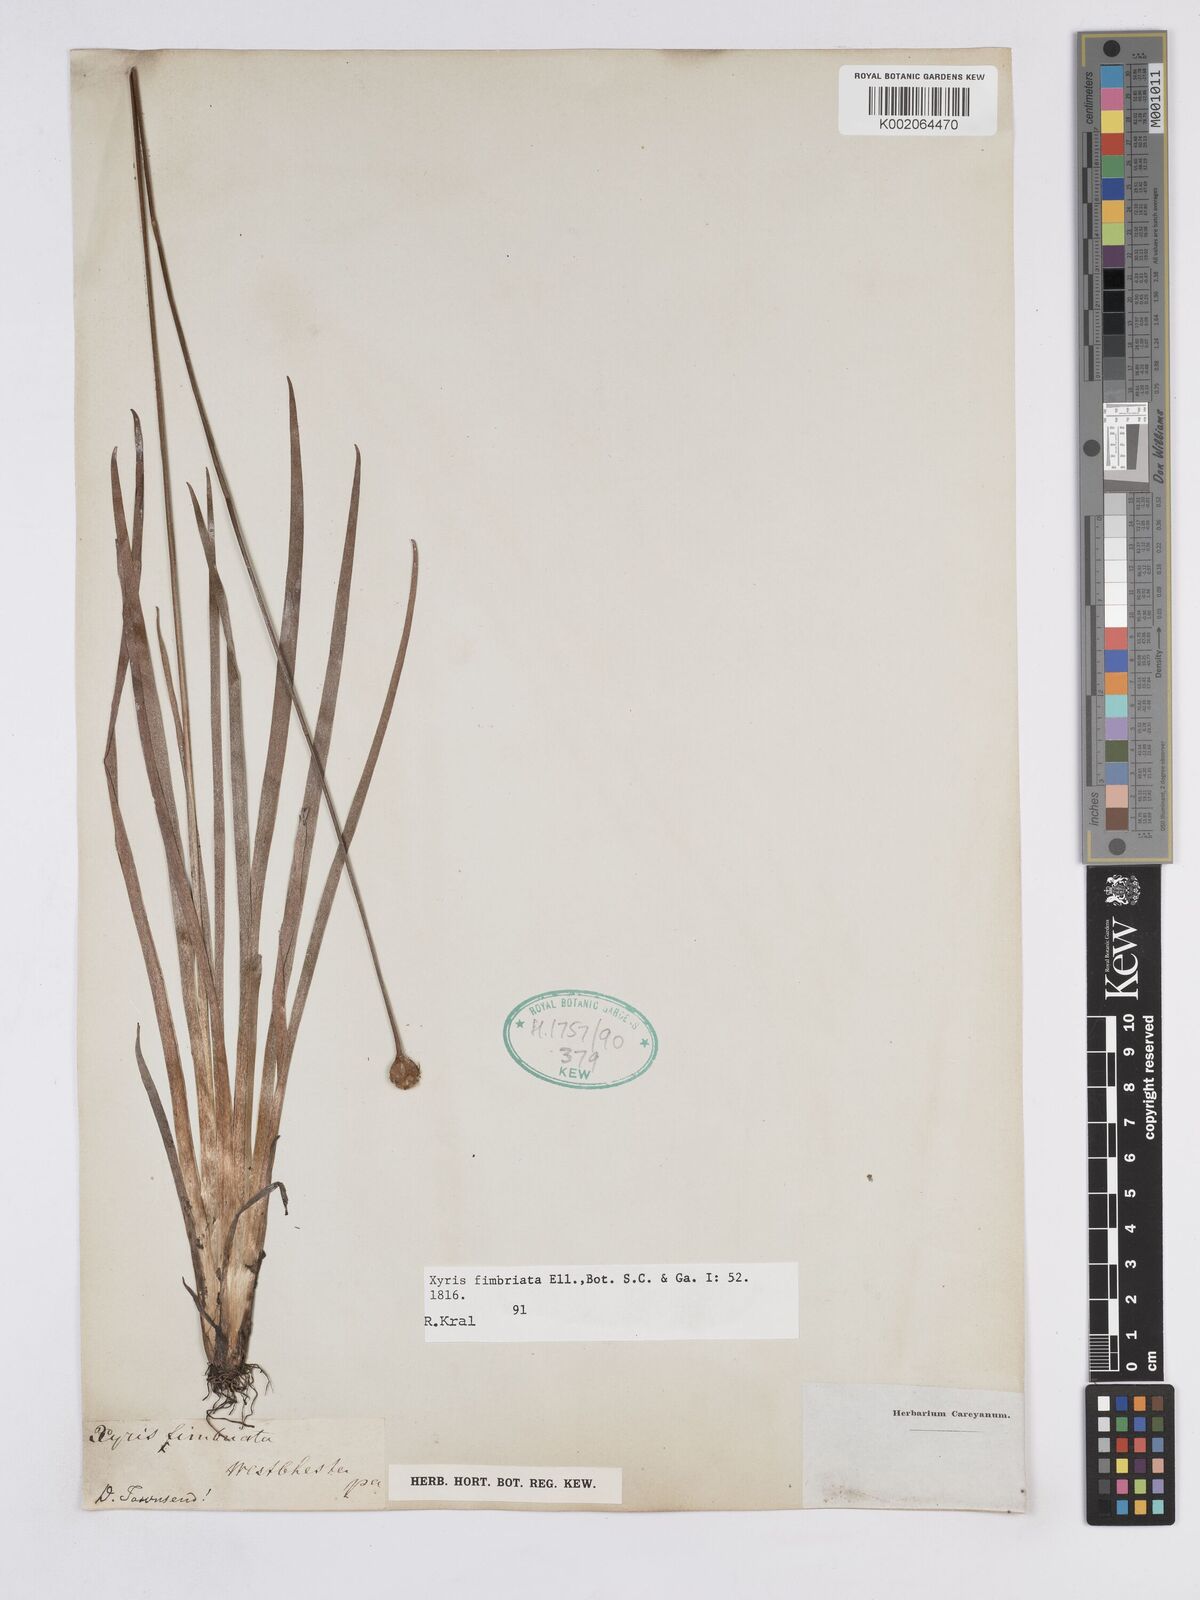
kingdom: Plantae
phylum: Tracheophyta
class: Liliopsida
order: Poales
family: Xyridaceae
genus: Xyris
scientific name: Xyris fimbriata
